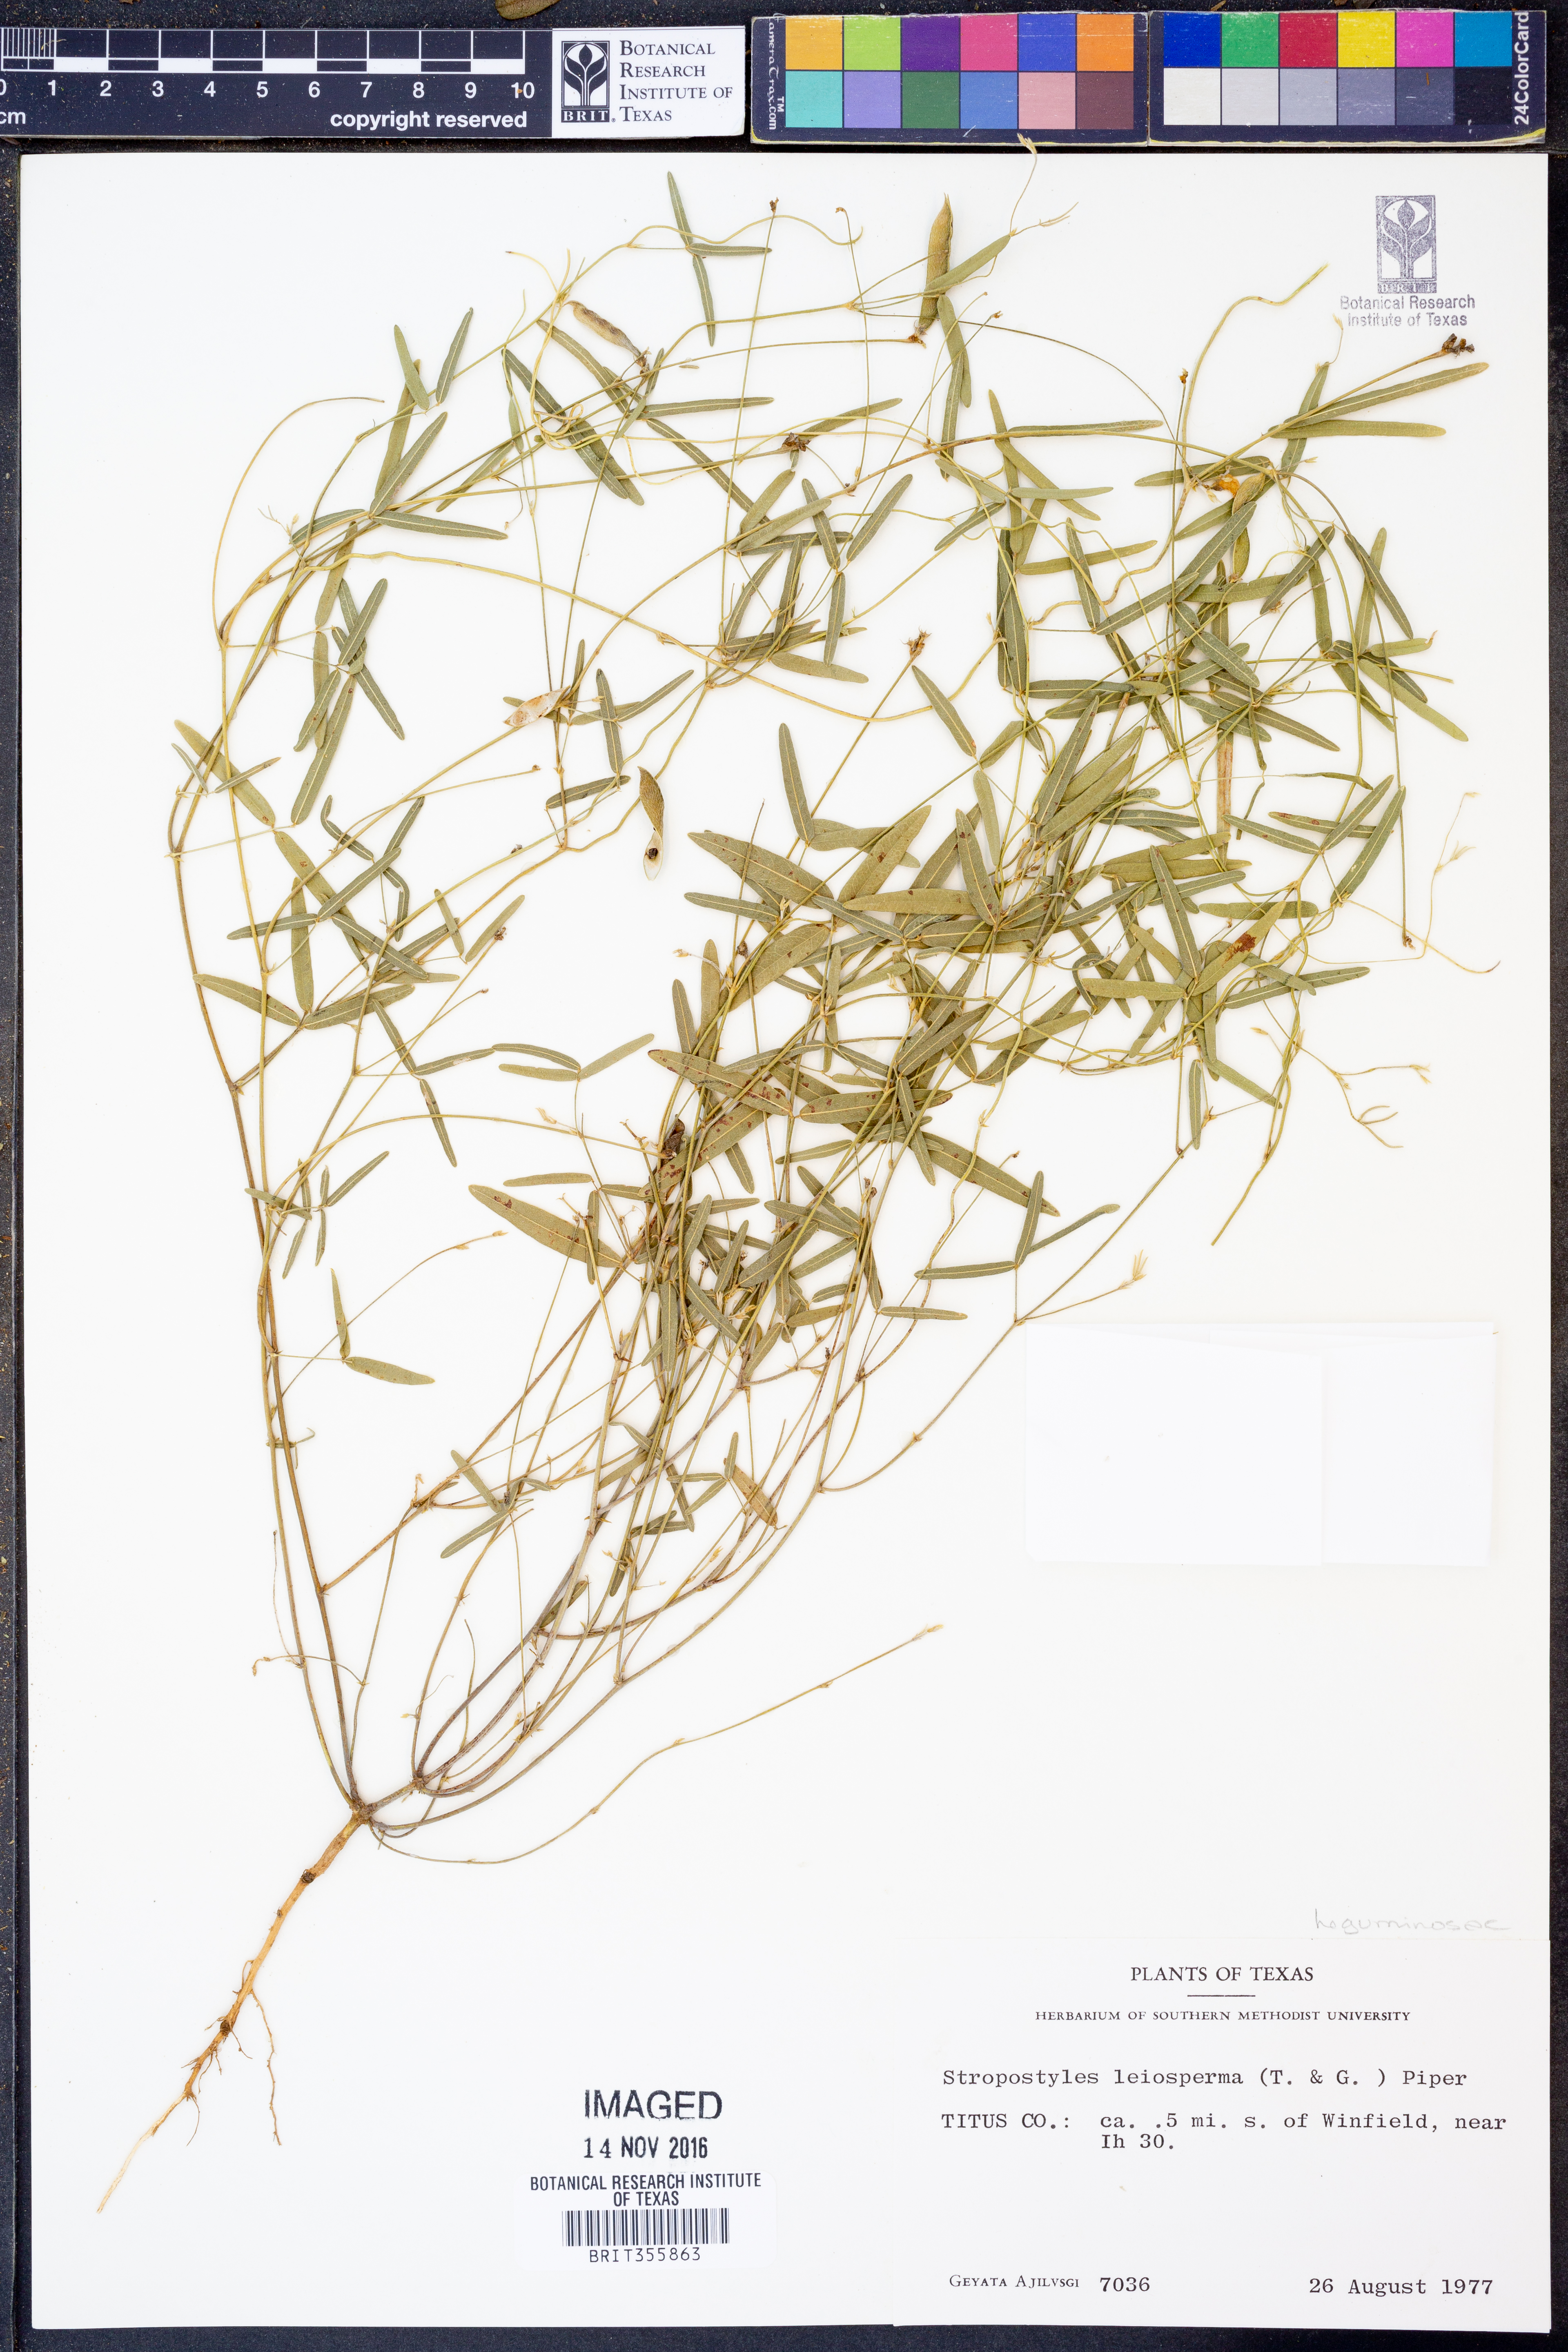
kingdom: Plantae
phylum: Tracheophyta
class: Magnoliopsida
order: Fabales
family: Fabaceae
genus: Strophostyles
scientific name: Strophostyles leiosperma
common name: Smooth-seed wild bean
